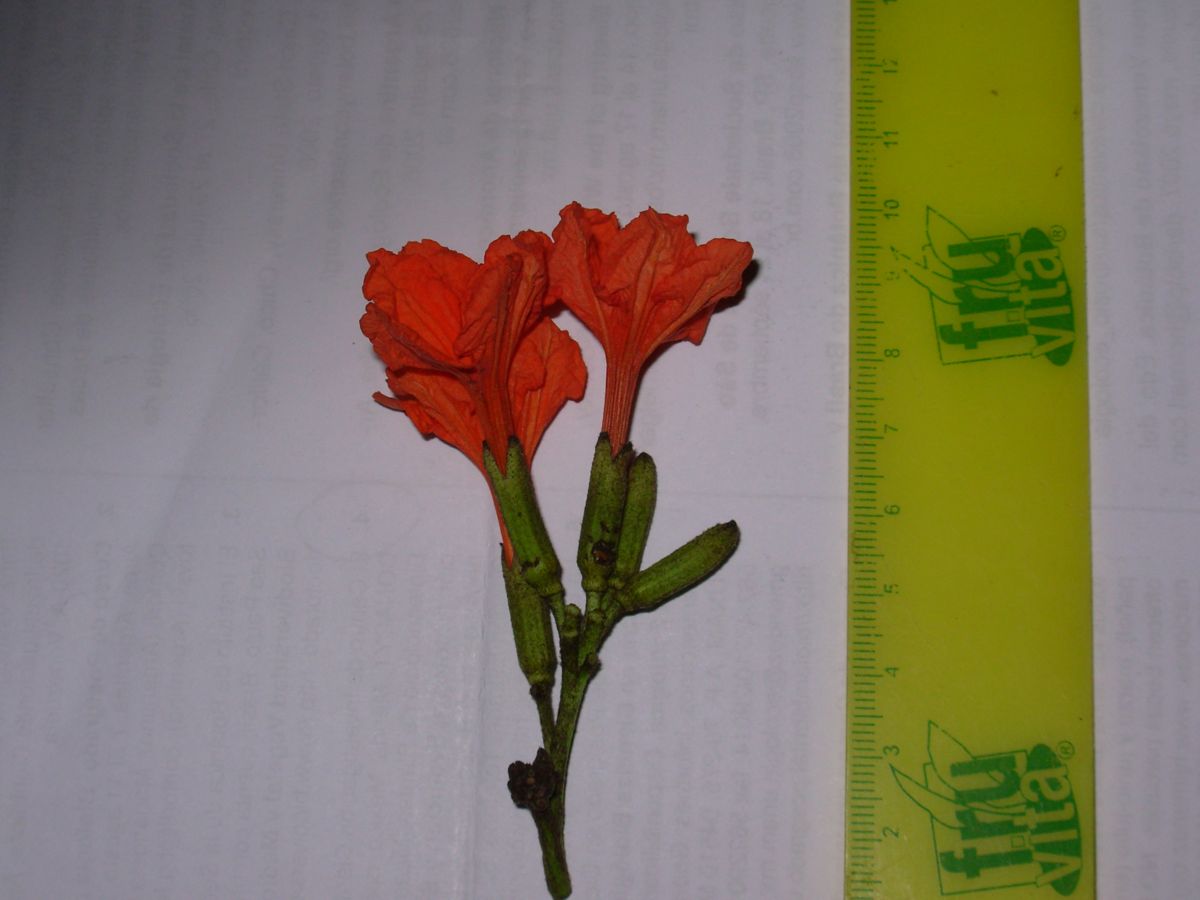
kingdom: Plantae
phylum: Tracheophyta
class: Magnoliopsida
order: Boraginales
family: Cordiaceae
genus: Cordia
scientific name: Cordia dodecandra
